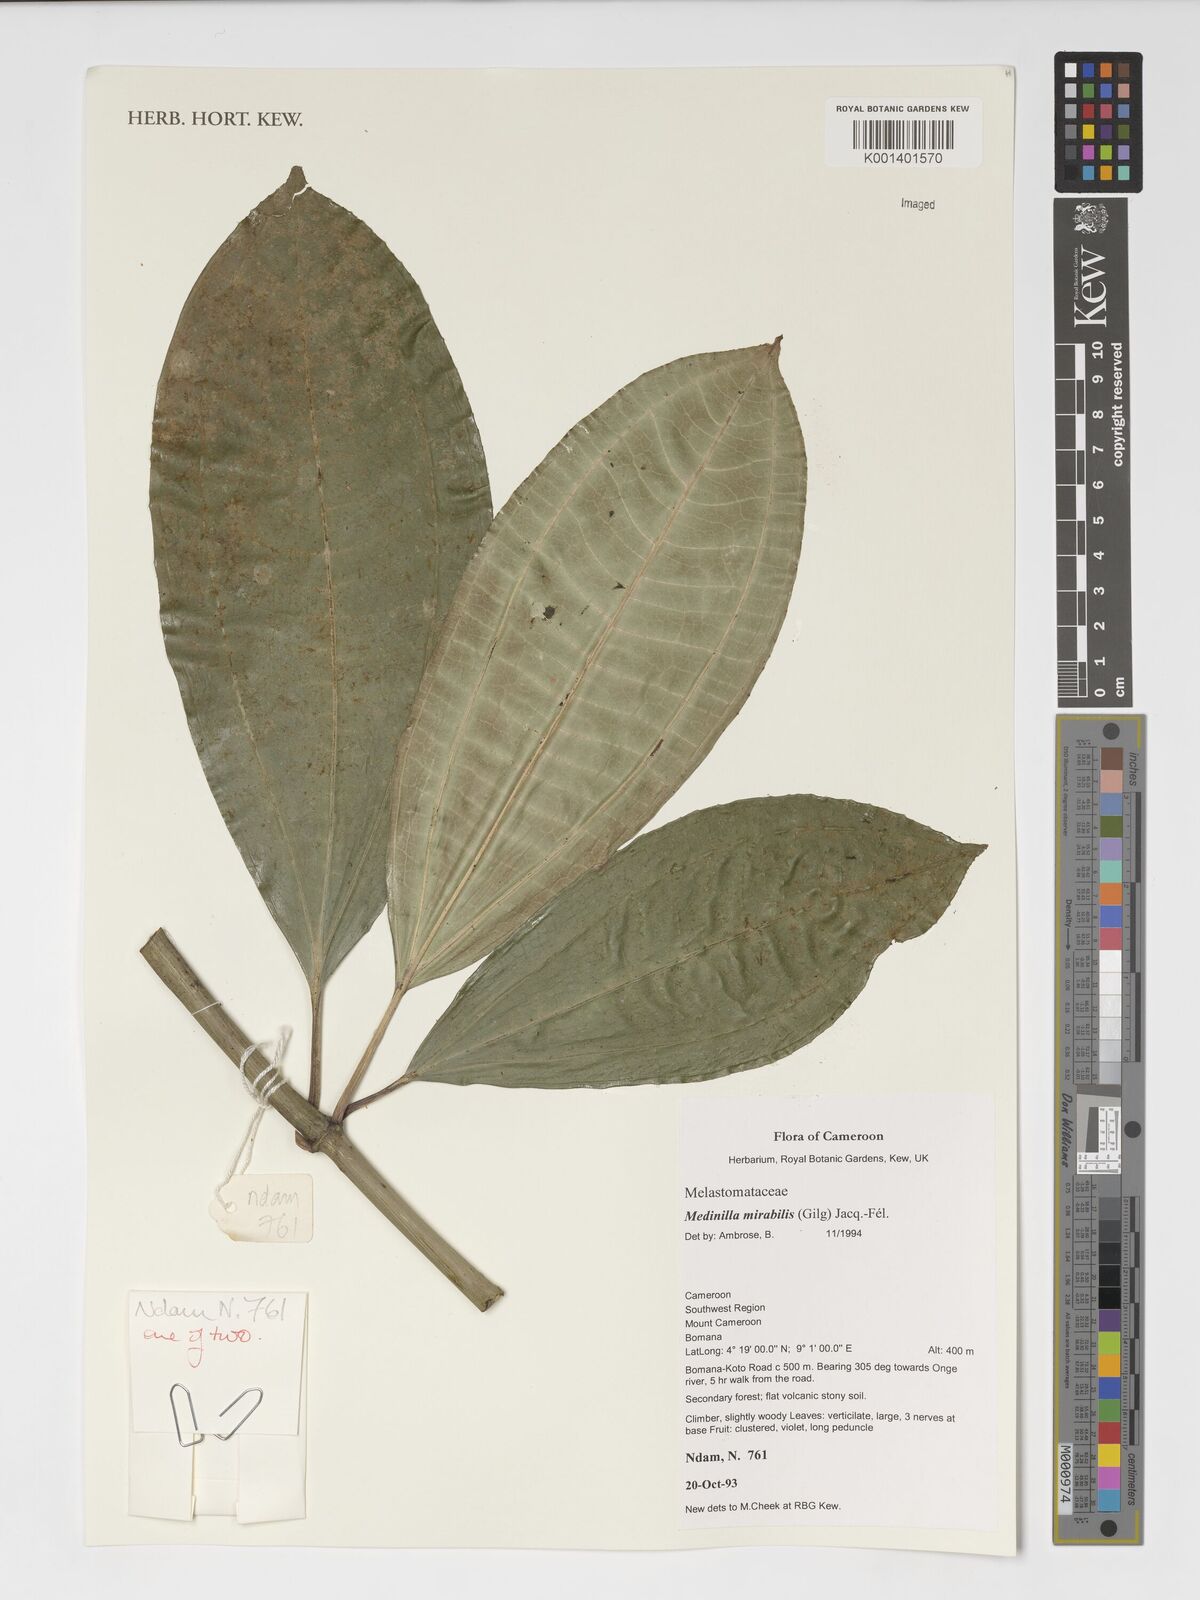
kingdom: Plantae
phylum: Tracheophyta
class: Magnoliopsida
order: Myrtales
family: Melastomataceae
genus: Medinilla
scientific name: Medinilla mirabile
